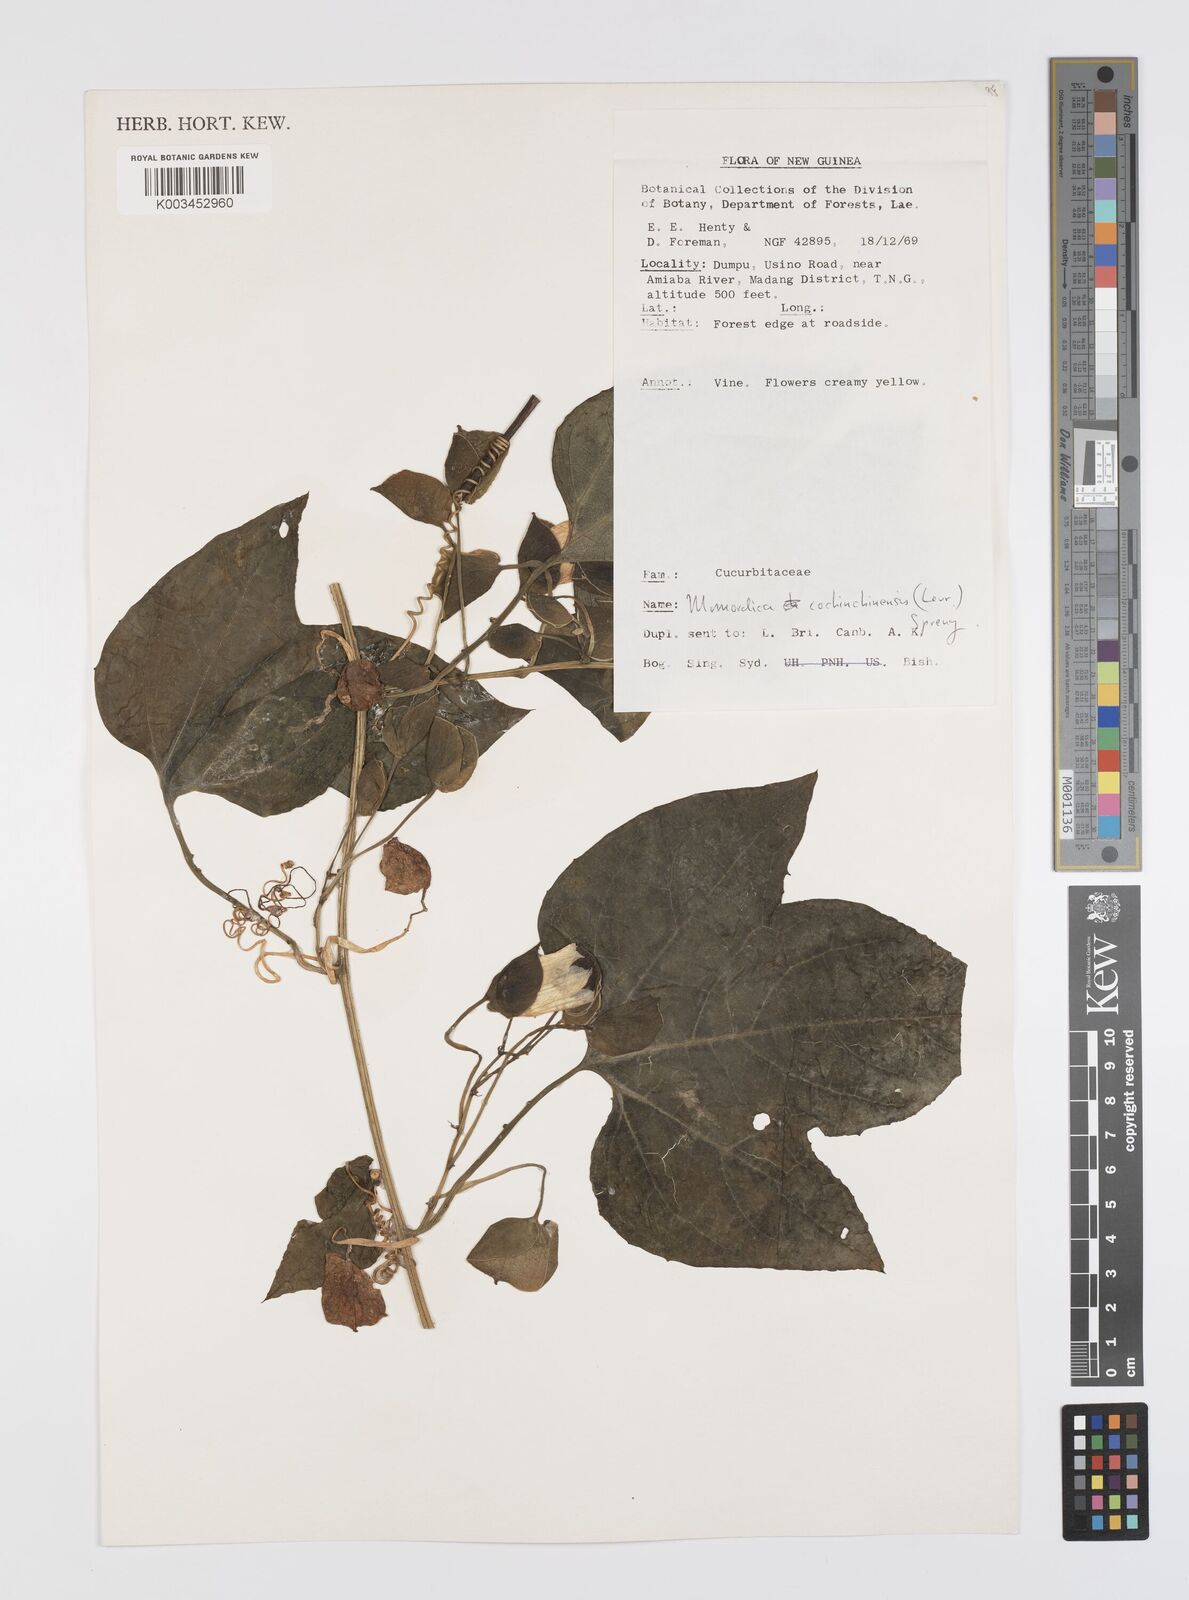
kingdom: Plantae
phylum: Tracheophyta
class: Magnoliopsida
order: Cucurbitales
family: Cucurbitaceae
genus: Momordica
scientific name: Momordica cochinchinensis
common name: Chinese bitter-cucumber
